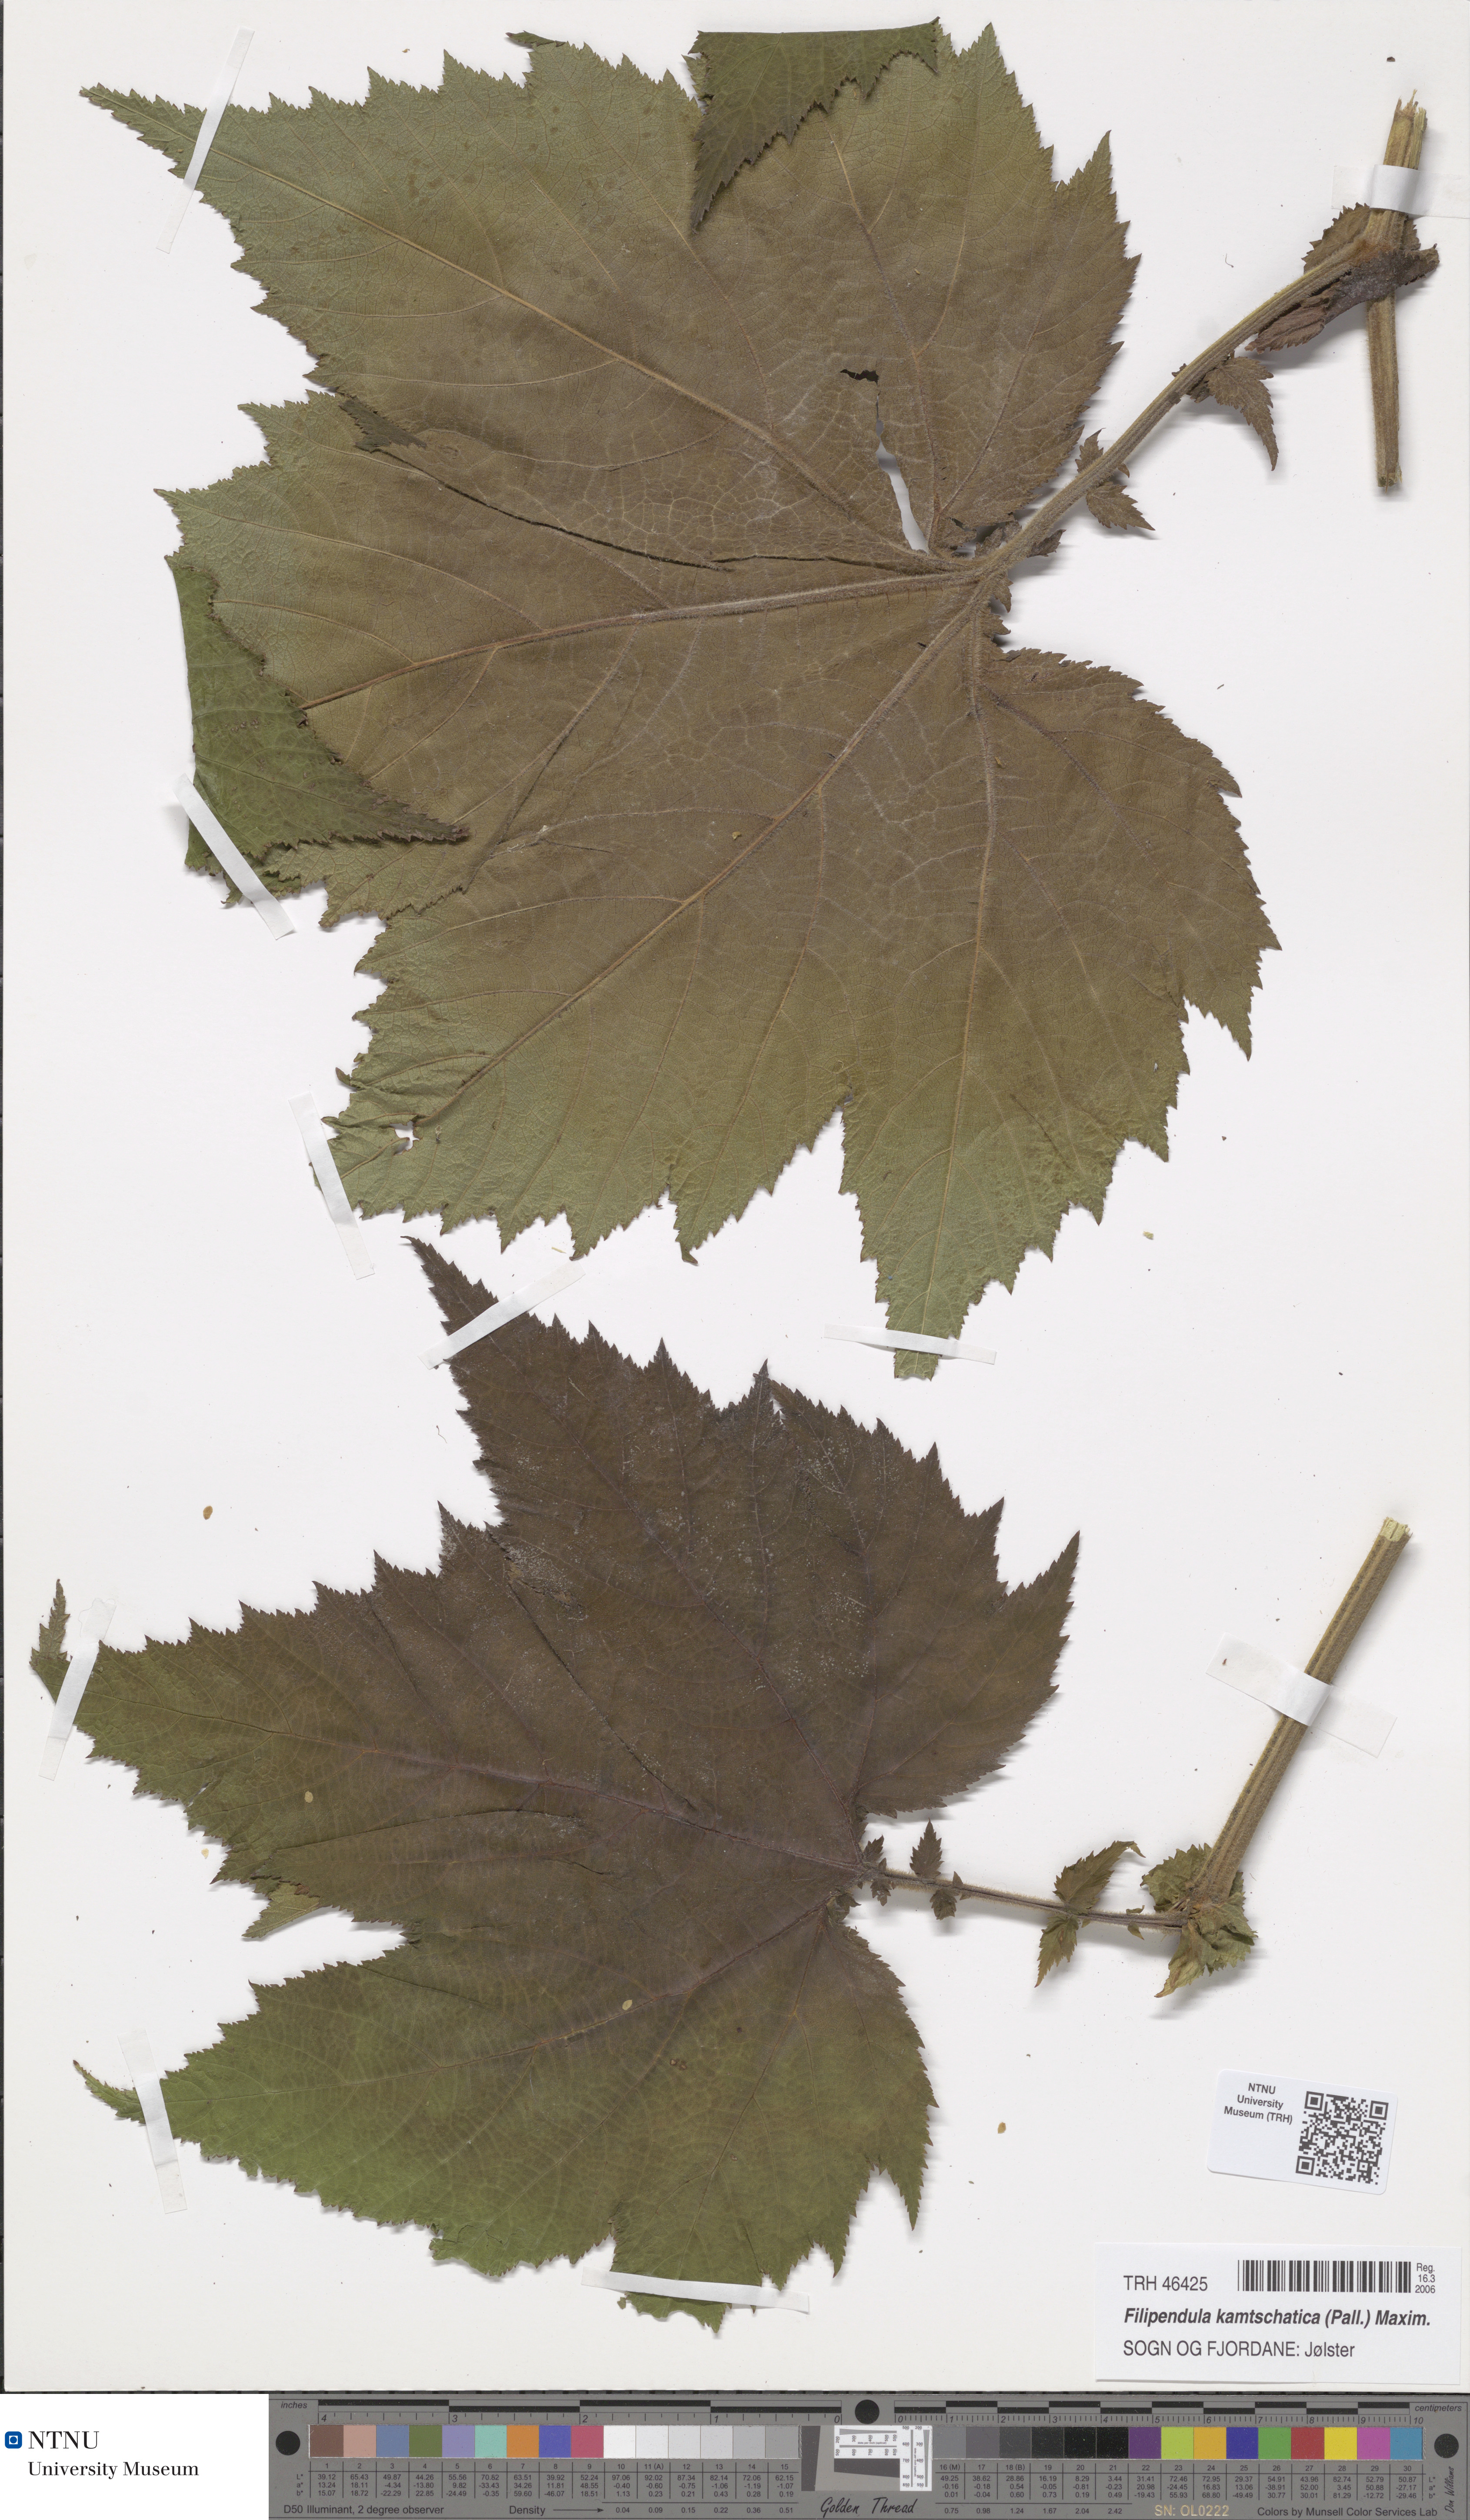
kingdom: Plantae
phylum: Tracheophyta
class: Magnoliopsida
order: Rosales
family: Rosaceae
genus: Filipendula
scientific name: Filipendula camschatica
